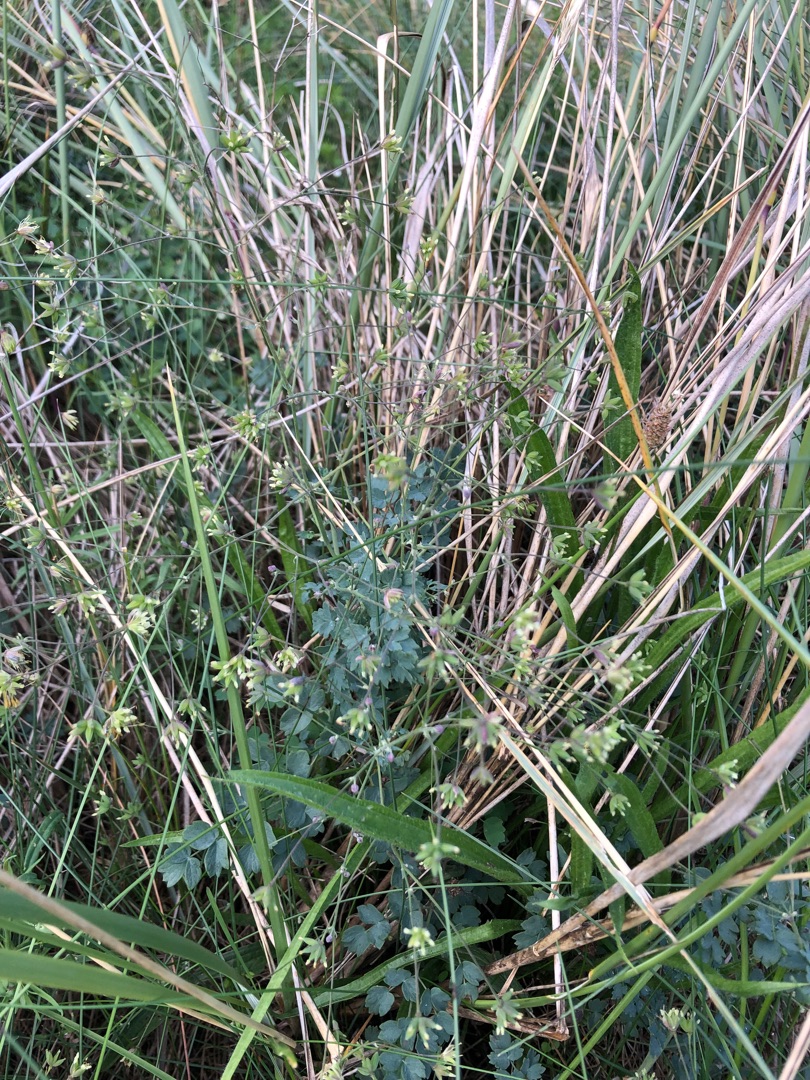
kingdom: Plantae
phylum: Tracheophyta
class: Magnoliopsida
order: Ranunculales
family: Ranunculaceae
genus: Thalictrum
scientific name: Thalictrum minus
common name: Sand-frøstjerne
